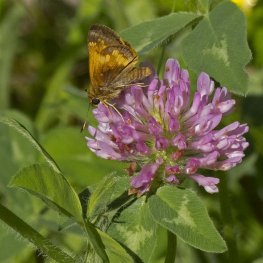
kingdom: Animalia
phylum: Arthropoda
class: Insecta
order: Lepidoptera
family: Hesperiidae
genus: Lon
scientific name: Lon hobomok
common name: Hobomok Skipper
